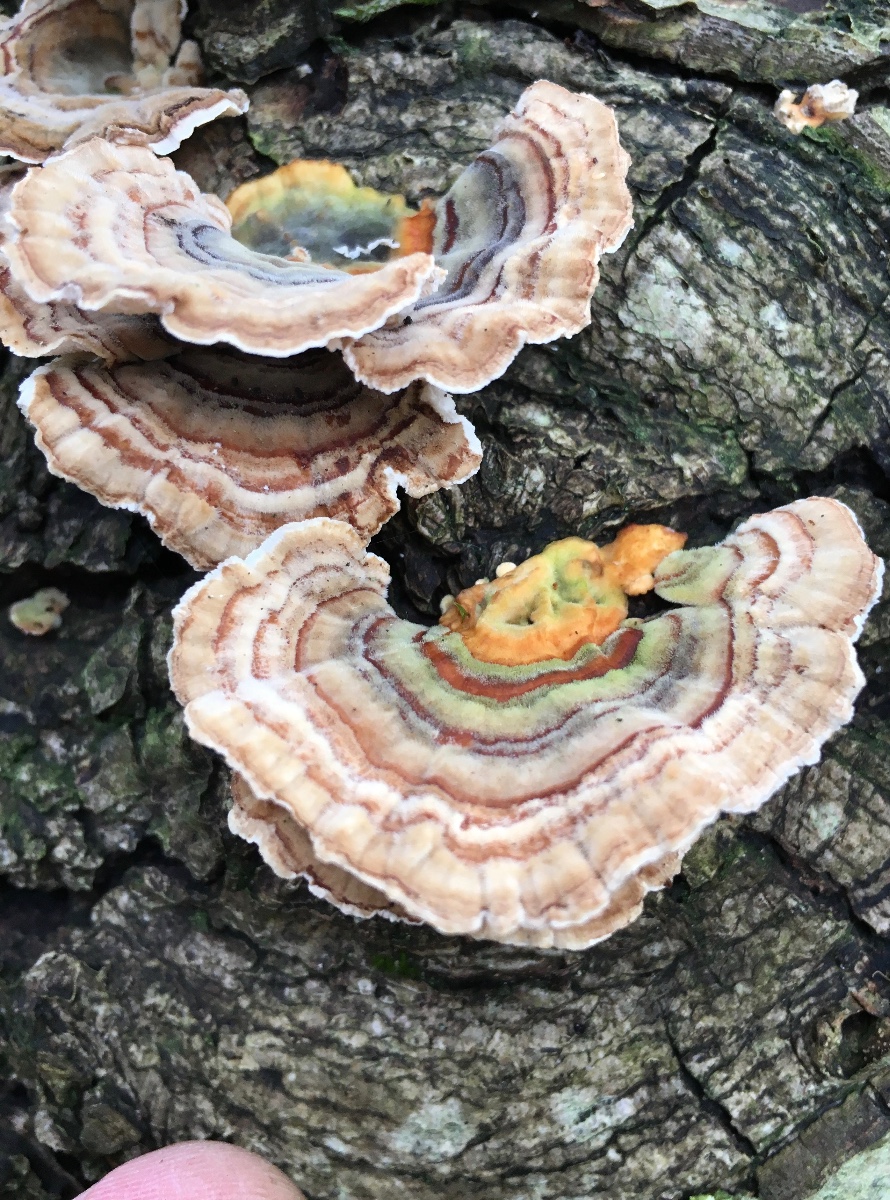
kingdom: Fungi
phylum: Basidiomycota
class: Agaricomycetes
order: Polyporales
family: Polyporaceae
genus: Trametes
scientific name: Trametes versicolor
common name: broget læderporesvamp
